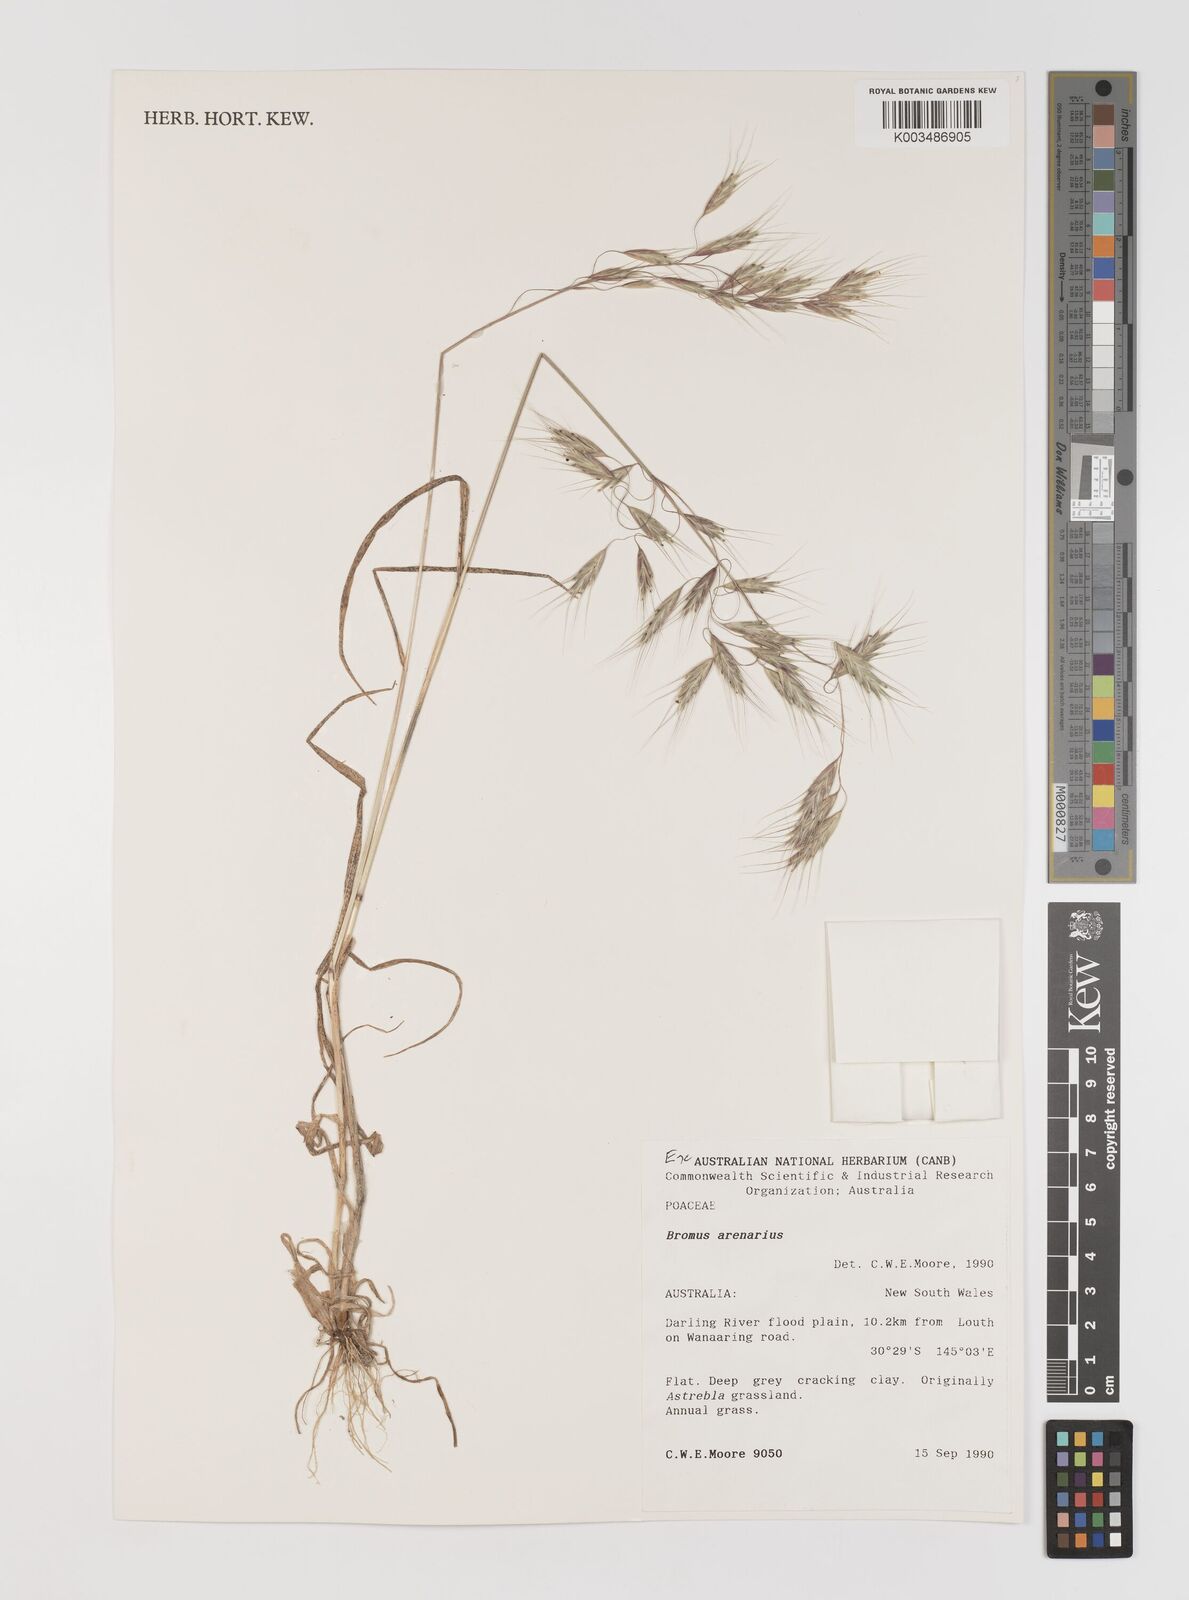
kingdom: Plantae
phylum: Tracheophyta
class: Liliopsida
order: Poales
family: Poaceae
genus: Bromus
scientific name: Bromus arenarius
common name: Australian brome
